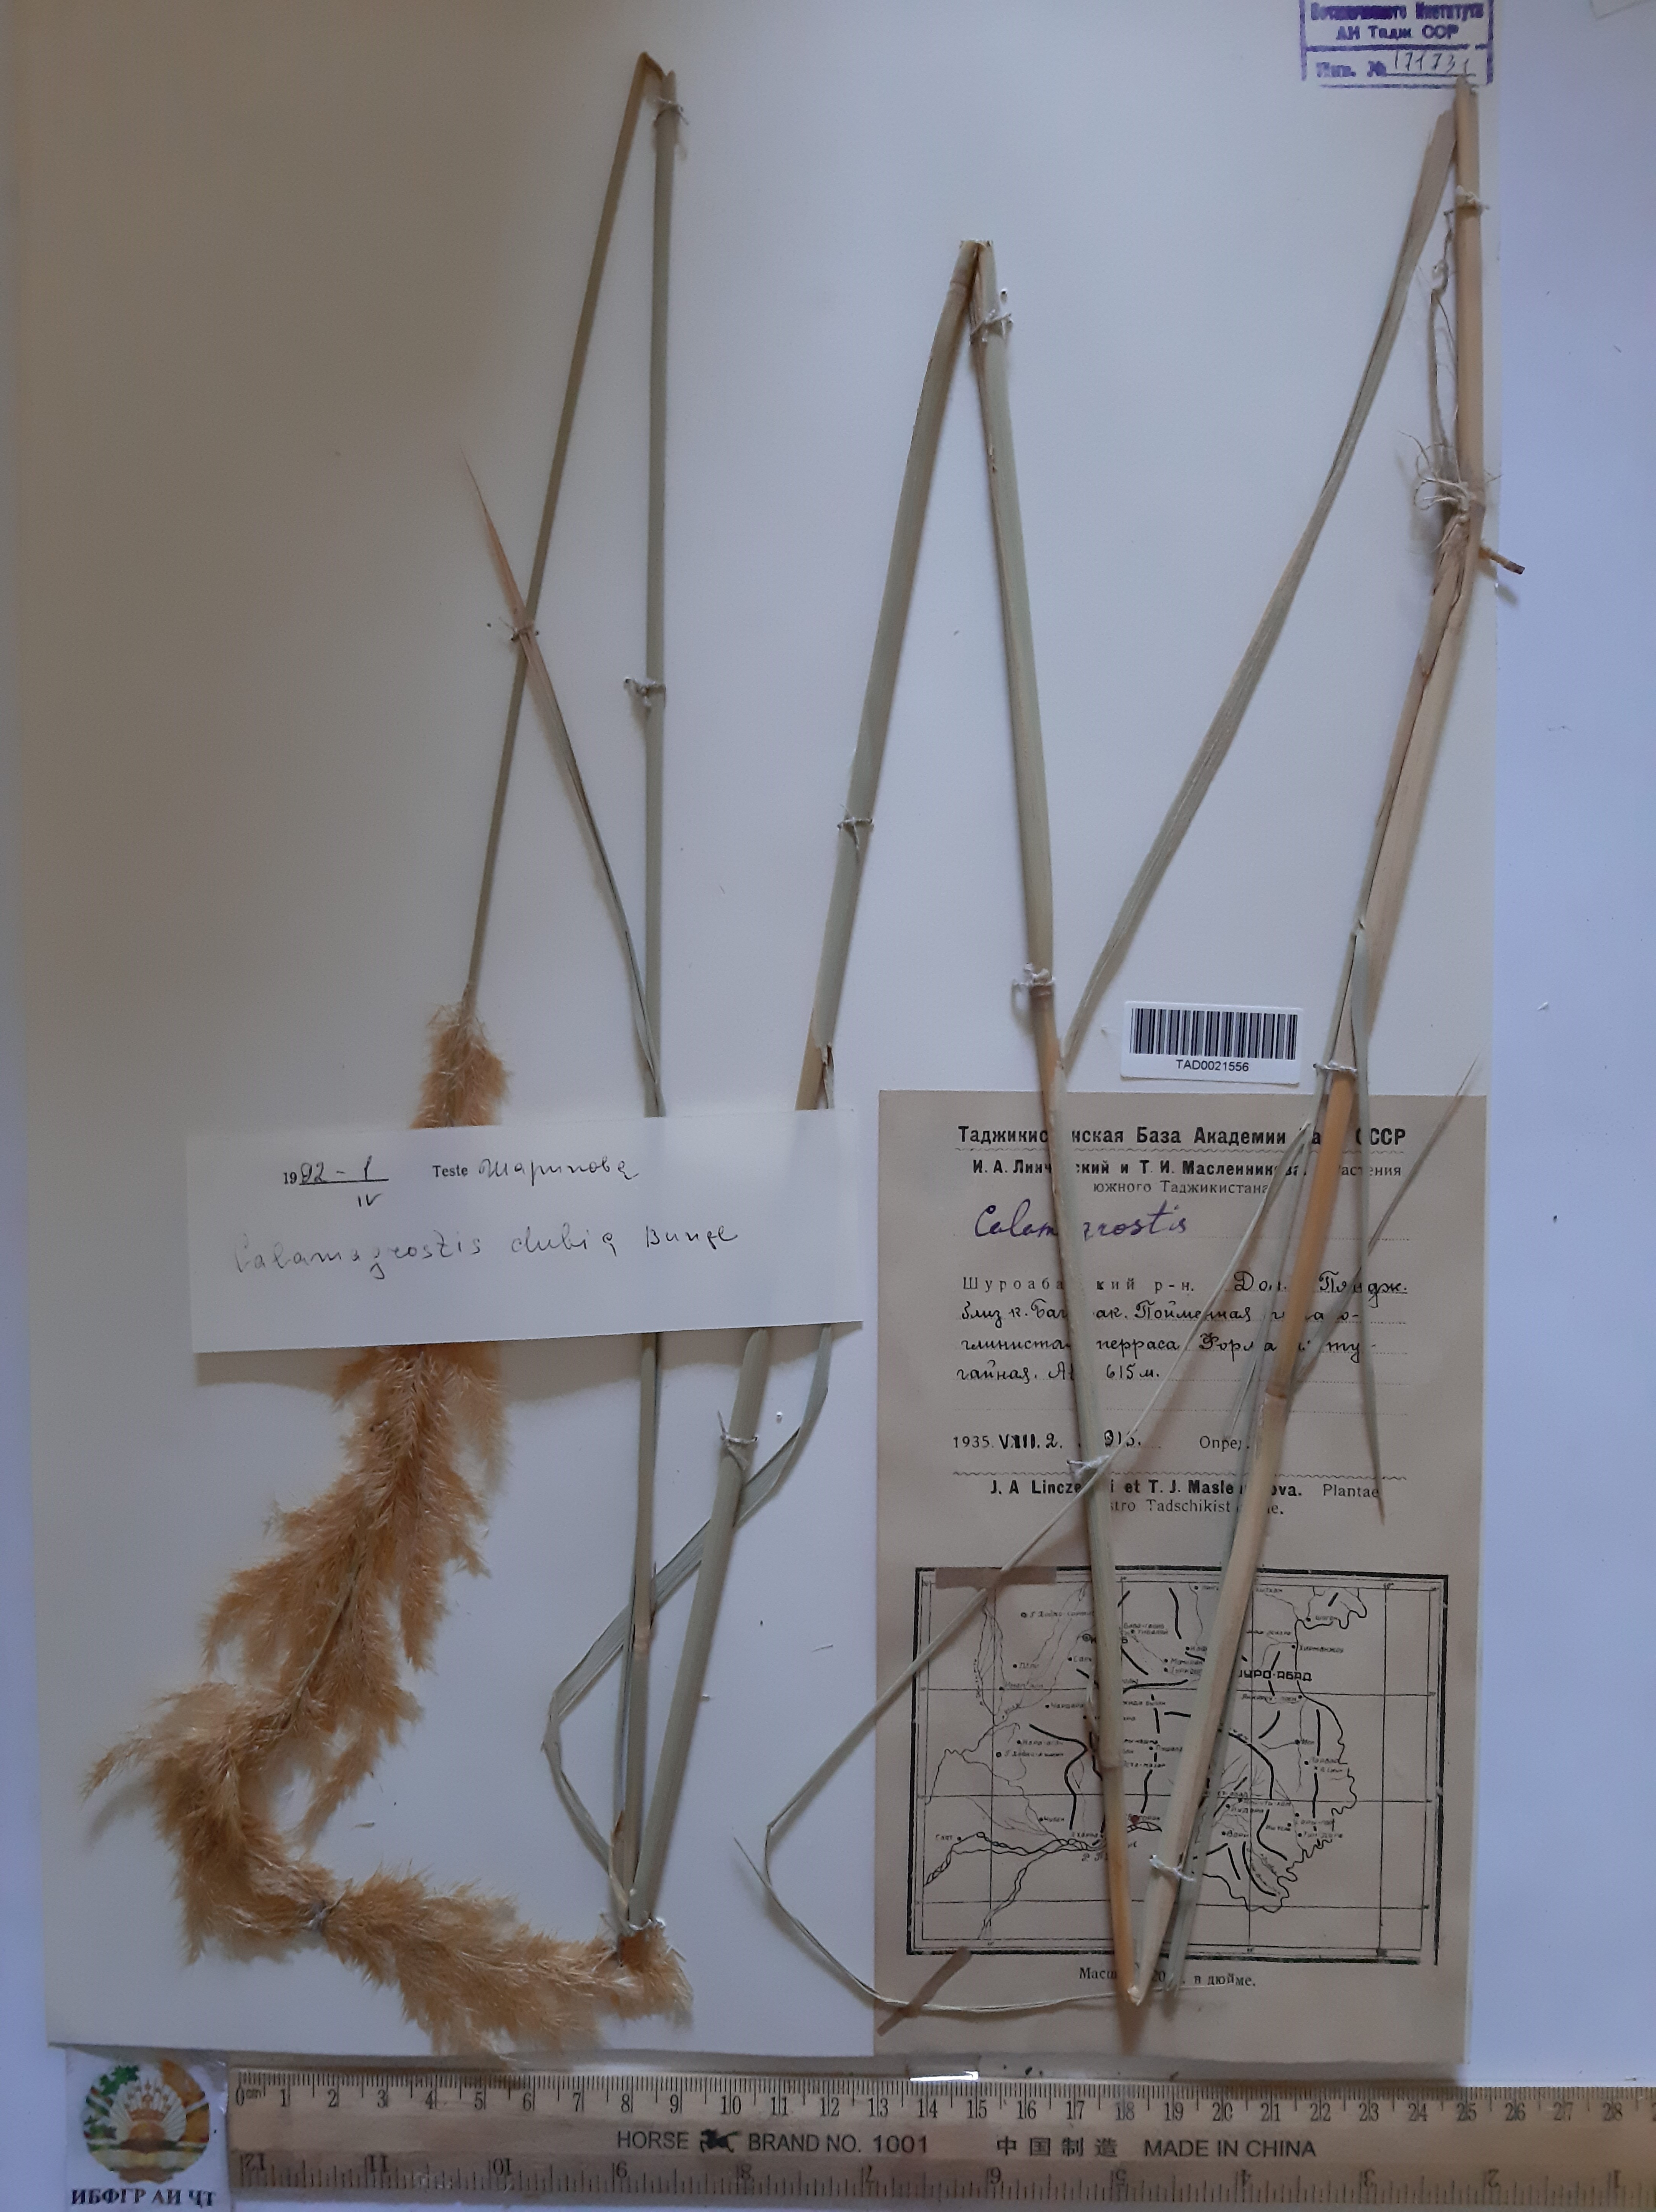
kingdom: Plantae
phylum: Tracheophyta
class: Liliopsida
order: Poales
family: Poaceae
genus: Calamagrostis
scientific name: Calamagrostis pseudophragmites
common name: Coastal small-reed
